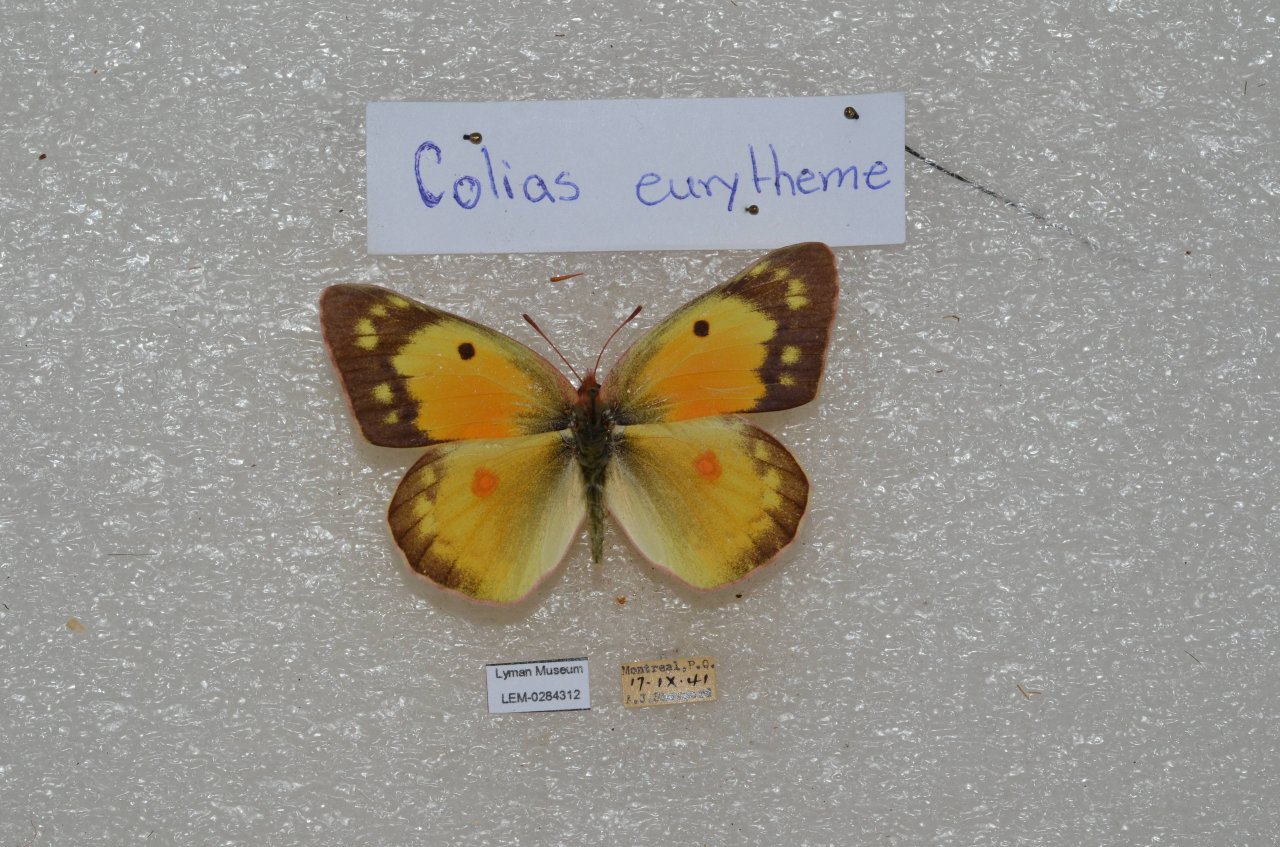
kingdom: Animalia
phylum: Arthropoda
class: Insecta
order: Lepidoptera
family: Pieridae
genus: Colias
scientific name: Colias eurytheme
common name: Orange Sulphur
